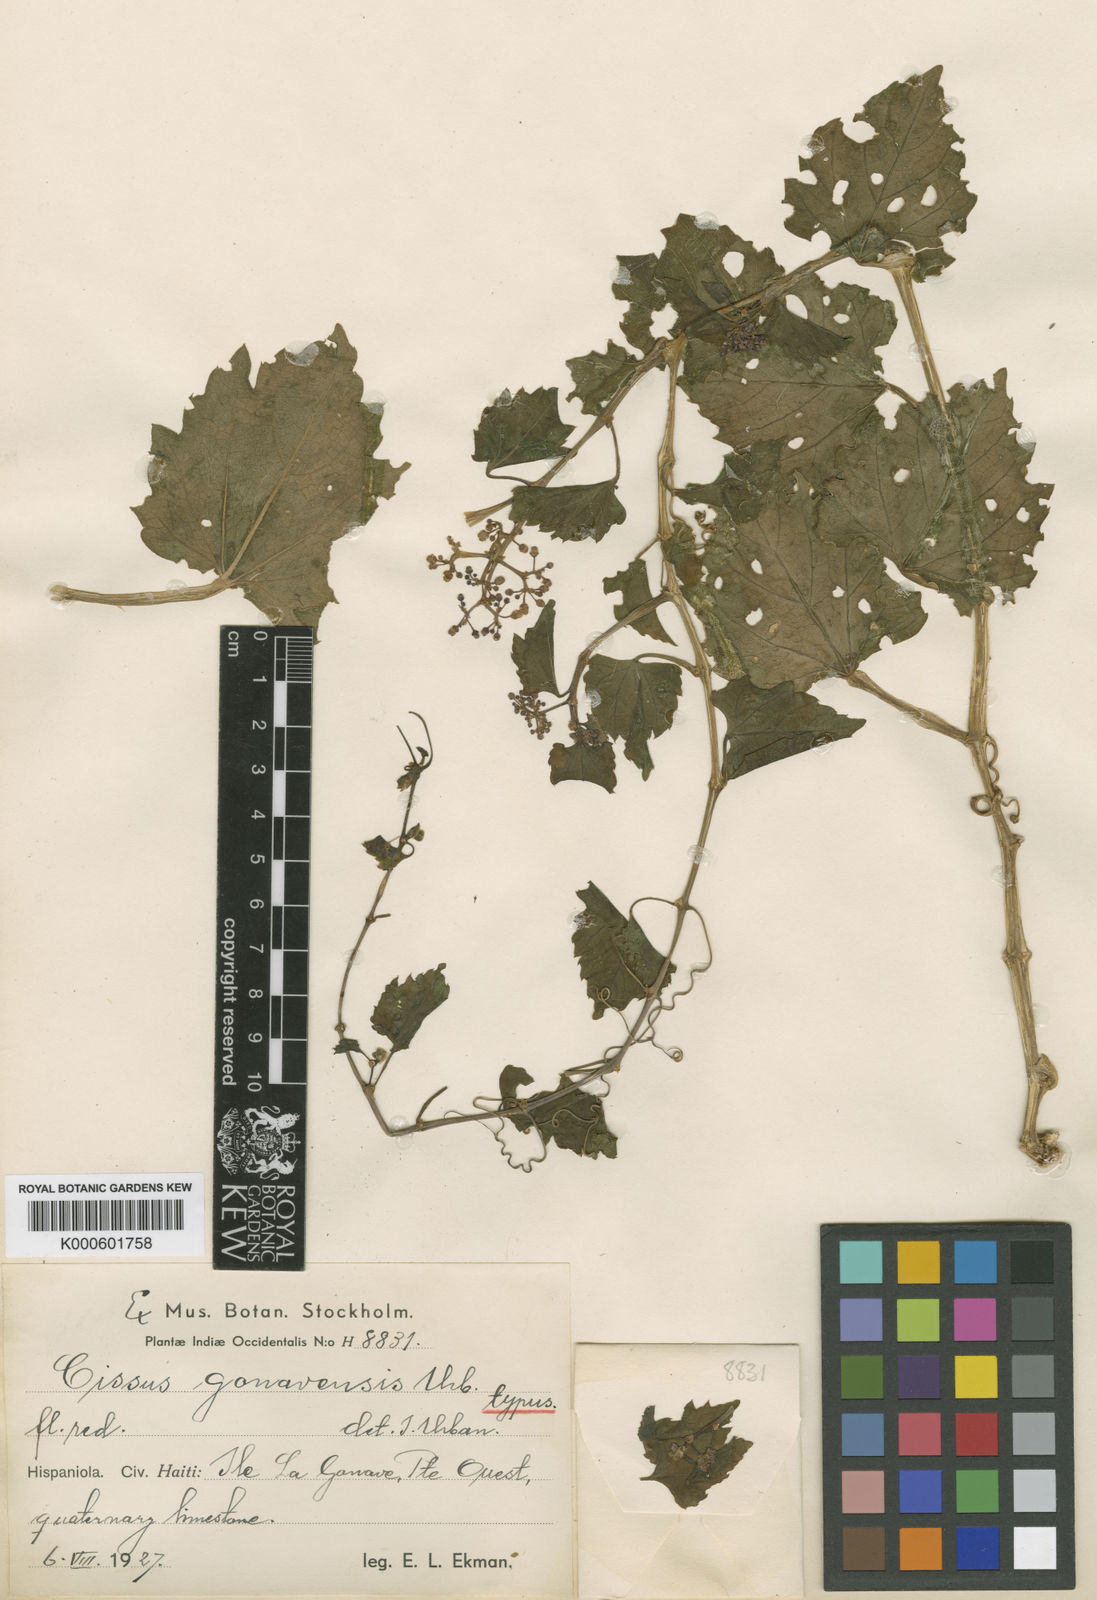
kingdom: Plantae
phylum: Tracheophyta
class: Magnoliopsida
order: Vitales
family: Vitaceae
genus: Cissus
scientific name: Cissus verticillata
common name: Princess vine
